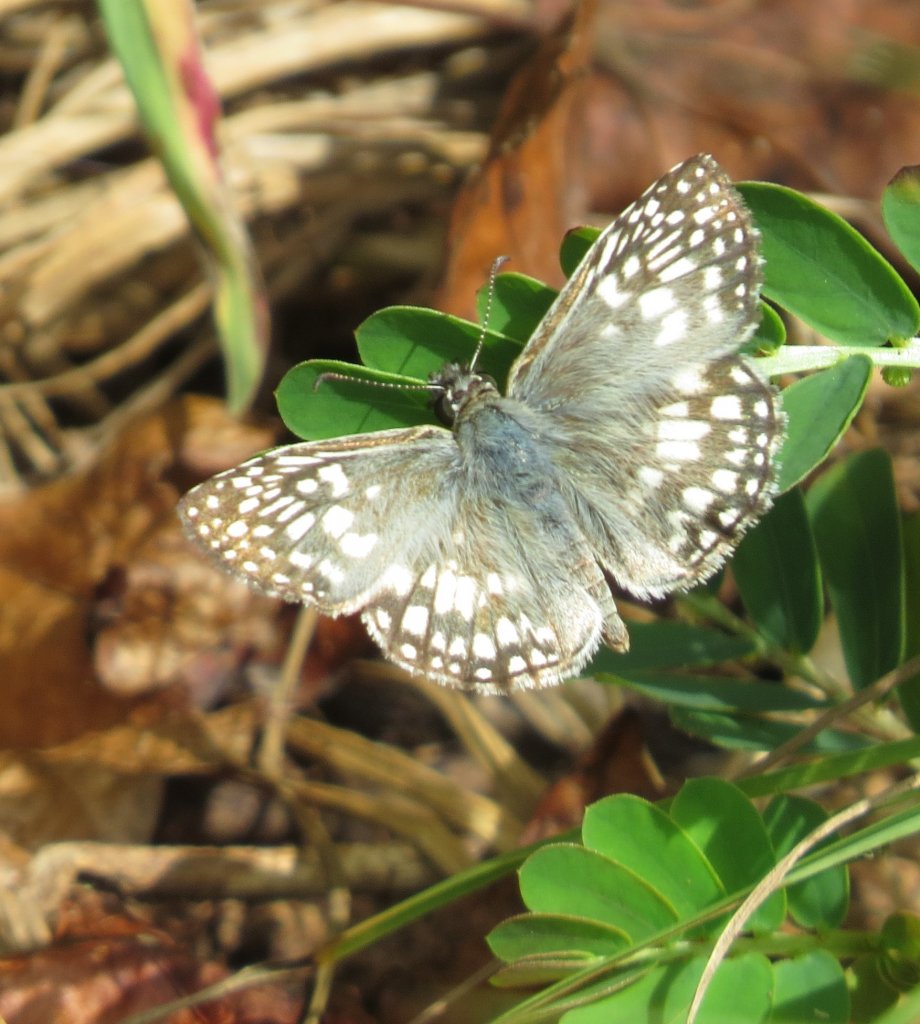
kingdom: Animalia
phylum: Arthropoda
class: Insecta
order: Lepidoptera
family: Hesperiidae
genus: Pyrgus
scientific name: Pyrgus oileus
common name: Tropical Checkered-Skipper
